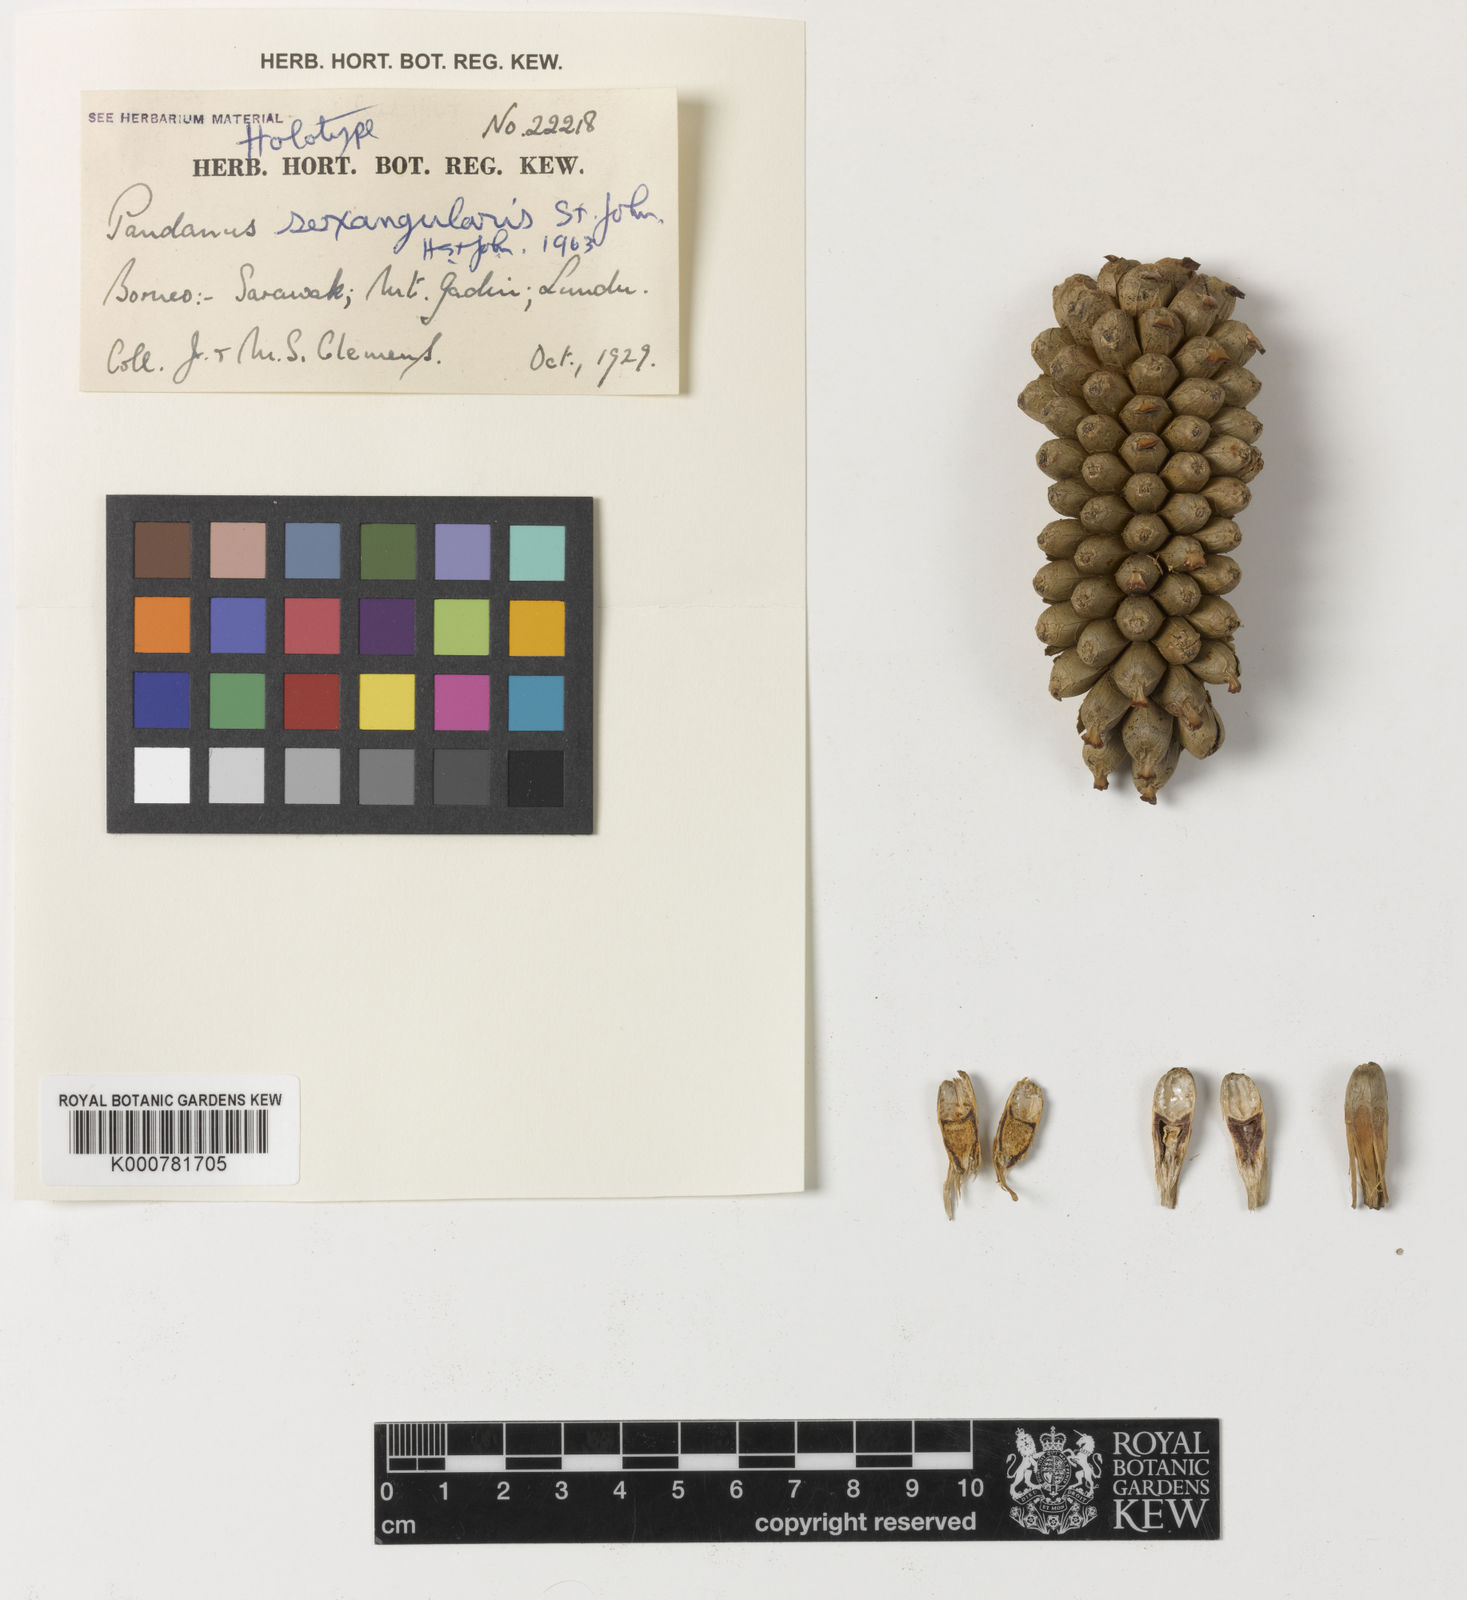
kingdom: Plantae
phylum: Tracheophyta
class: Liliopsida
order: Pandanales
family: Pandanaceae
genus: Pandanus
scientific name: Pandanus
